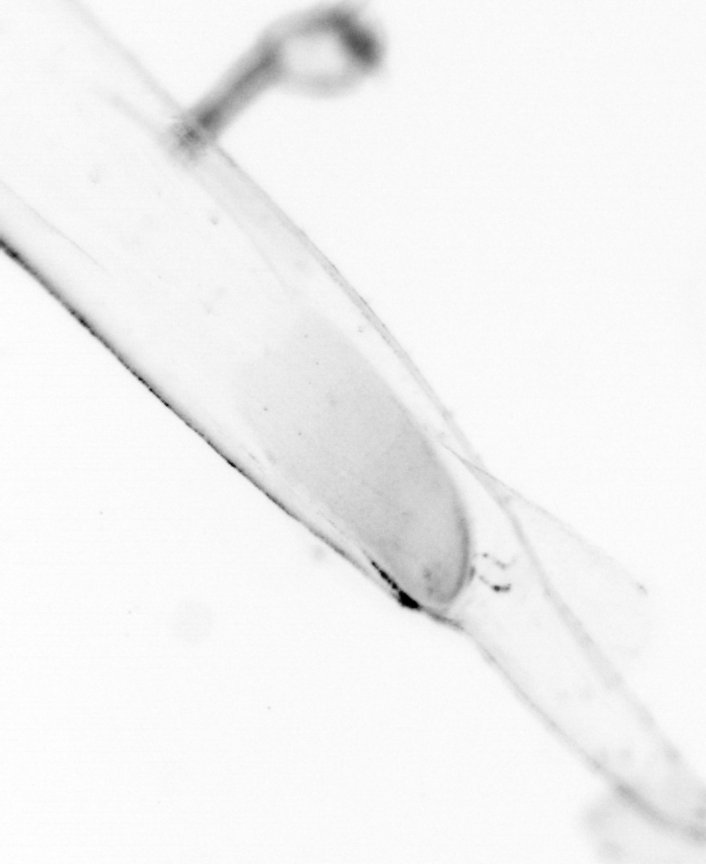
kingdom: Animalia
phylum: Chaetognatha
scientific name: Chaetognatha
